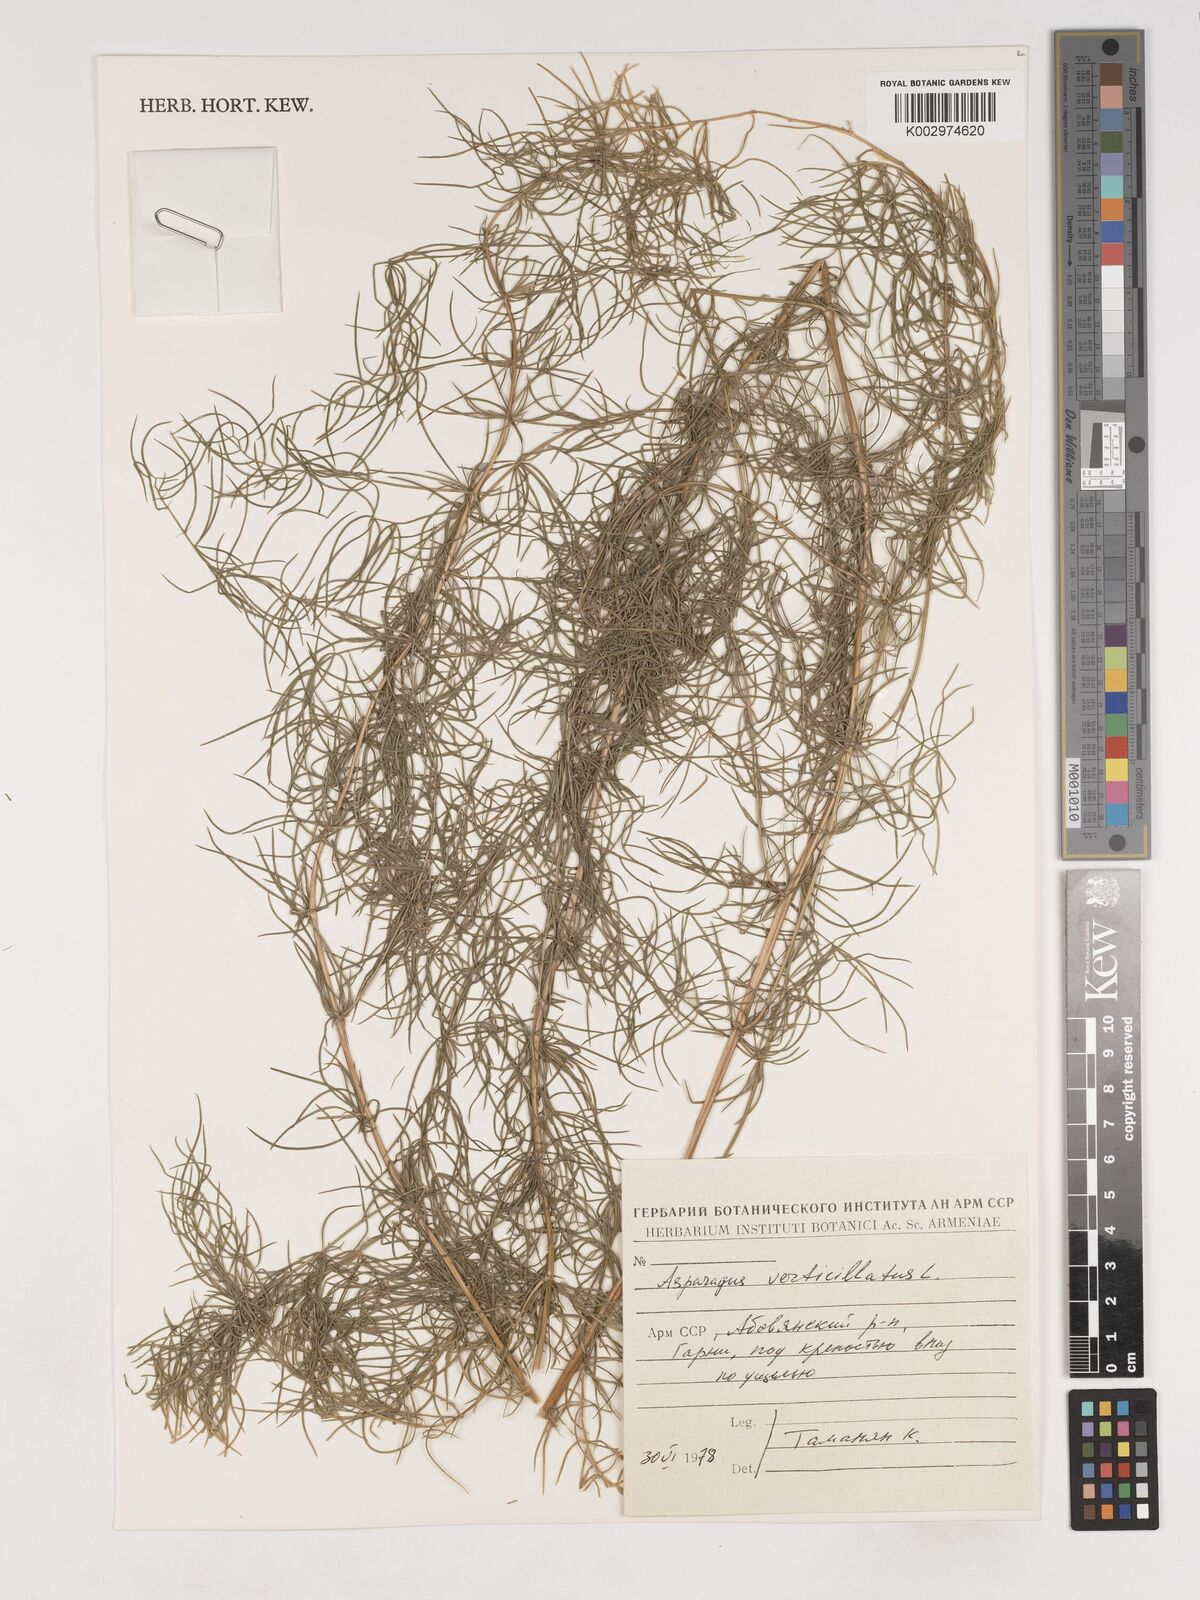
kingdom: Plantae
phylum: Tracheophyta
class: Liliopsida
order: Asparagales
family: Asparagaceae
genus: Asparagus
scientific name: Asparagus verticillatus
